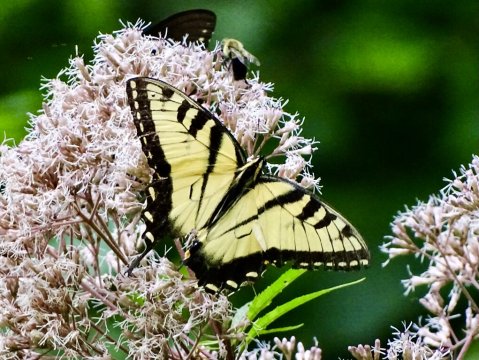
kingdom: Animalia
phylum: Arthropoda
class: Insecta
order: Lepidoptera
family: Papilionidae
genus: Pterourus
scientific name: Pterourus glaucus
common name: Eastern Tiger Swallowtail
